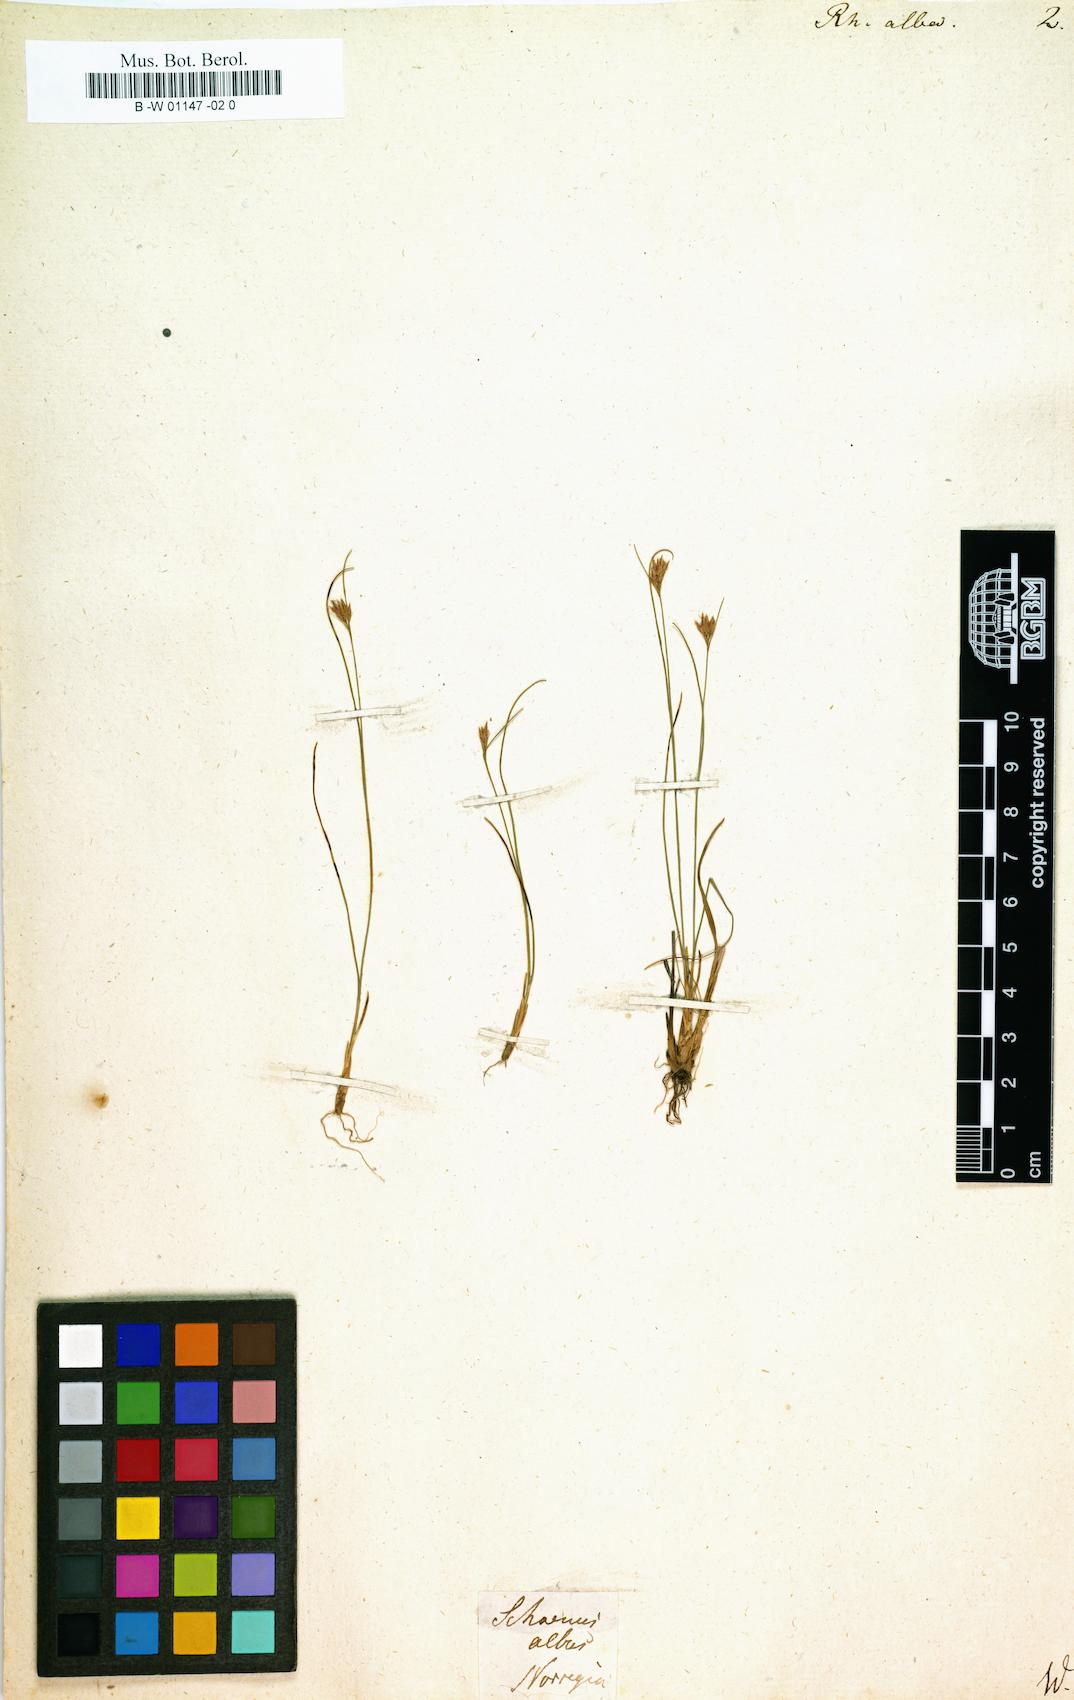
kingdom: Plantae
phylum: Tracheophyta
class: Liliopsida
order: Poales
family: Cyperaceae
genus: Rhynchospora
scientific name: Rhynchospora alba
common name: White beak-sedge
